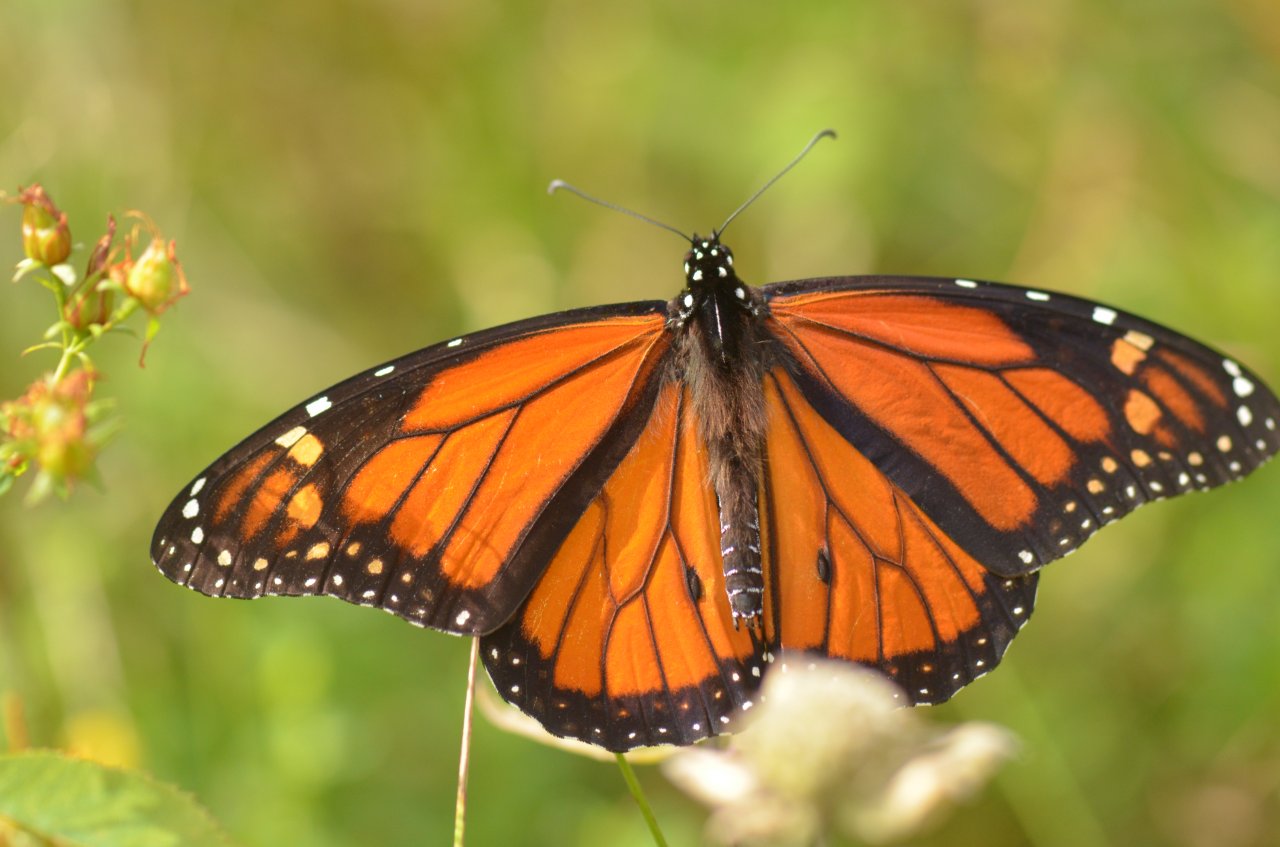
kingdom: Animalia
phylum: Arthropoda
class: Insecta
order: Lepidoptera
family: Nymphalidae
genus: Danaus
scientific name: Danaus plexippus
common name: Monarch
